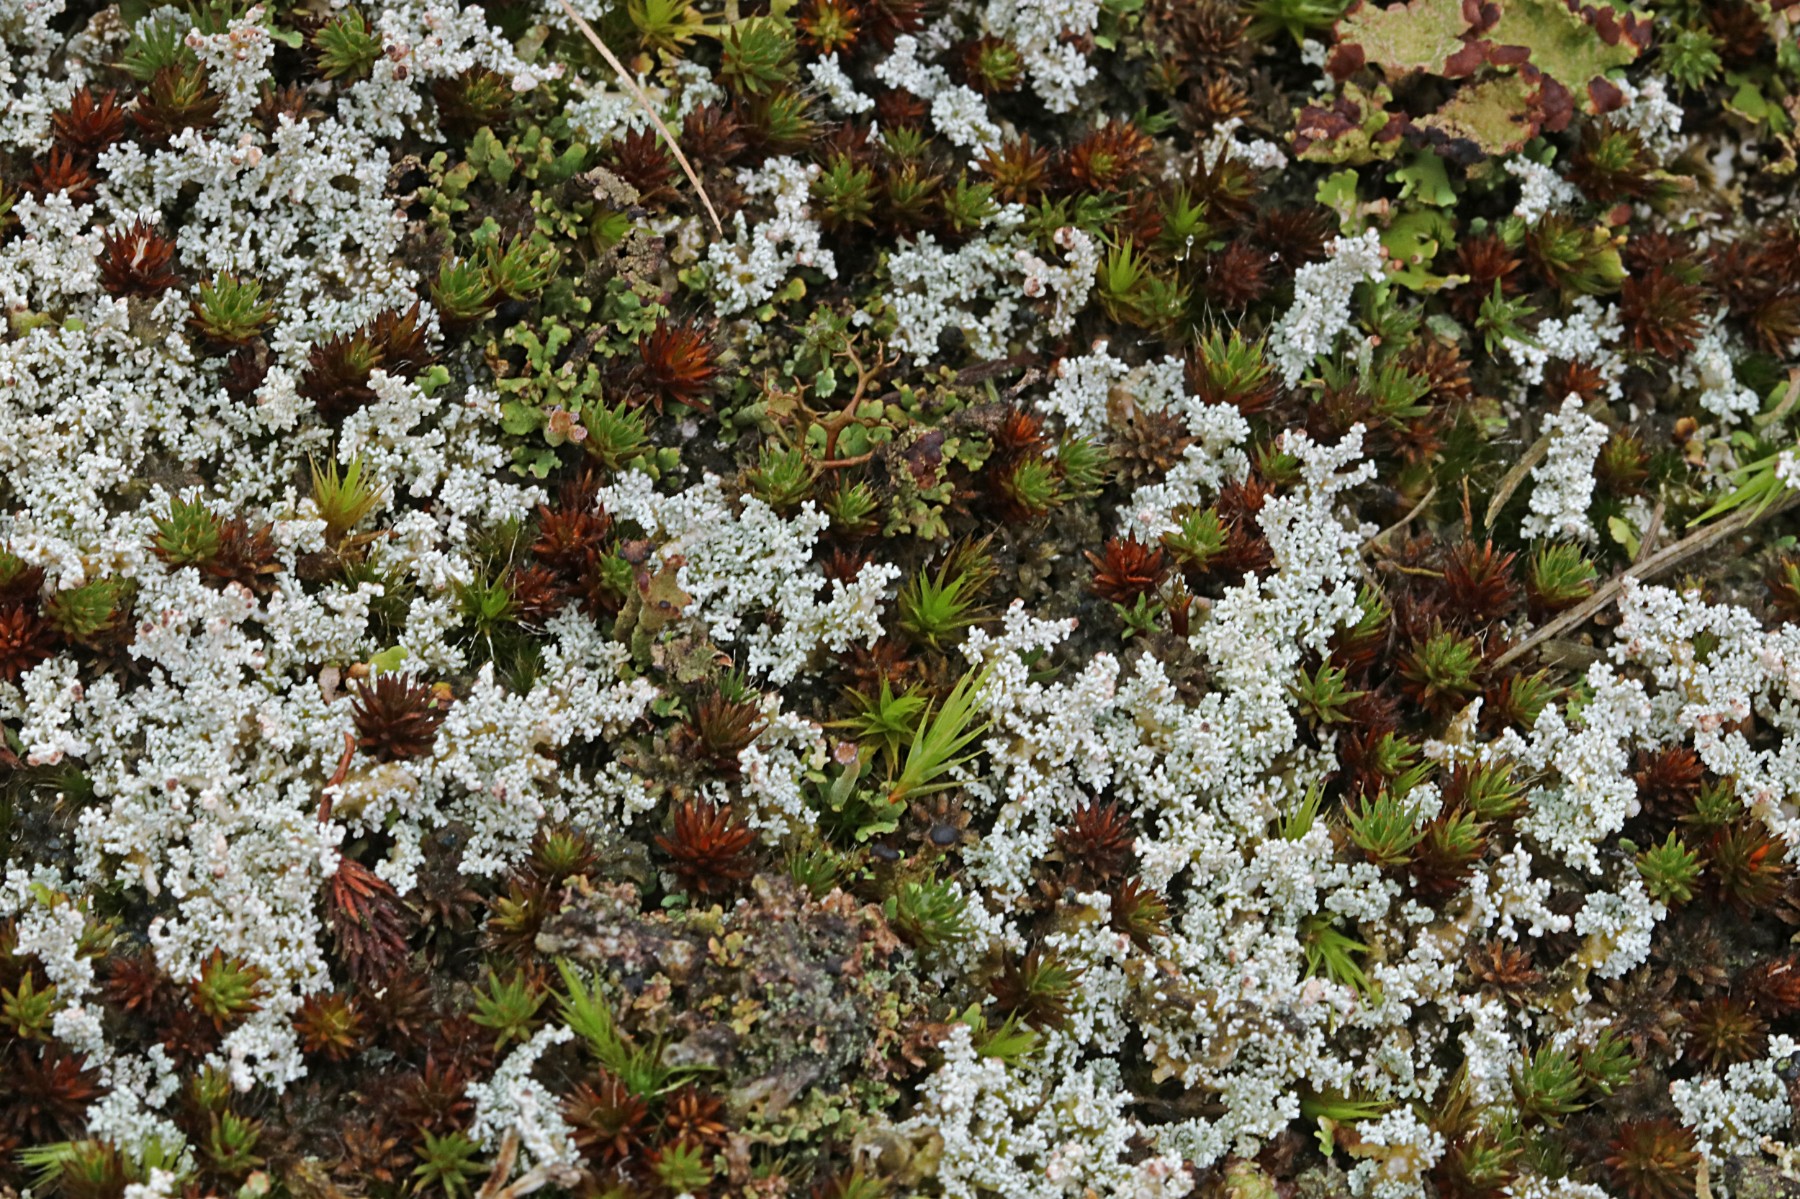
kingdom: Fungi
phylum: Ascomycota
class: Lecanoromycetes
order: Lecanorales
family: Stereocaulaceae
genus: Stereocaulon
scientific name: Stereocaulon saxatile
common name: klit-korallav
